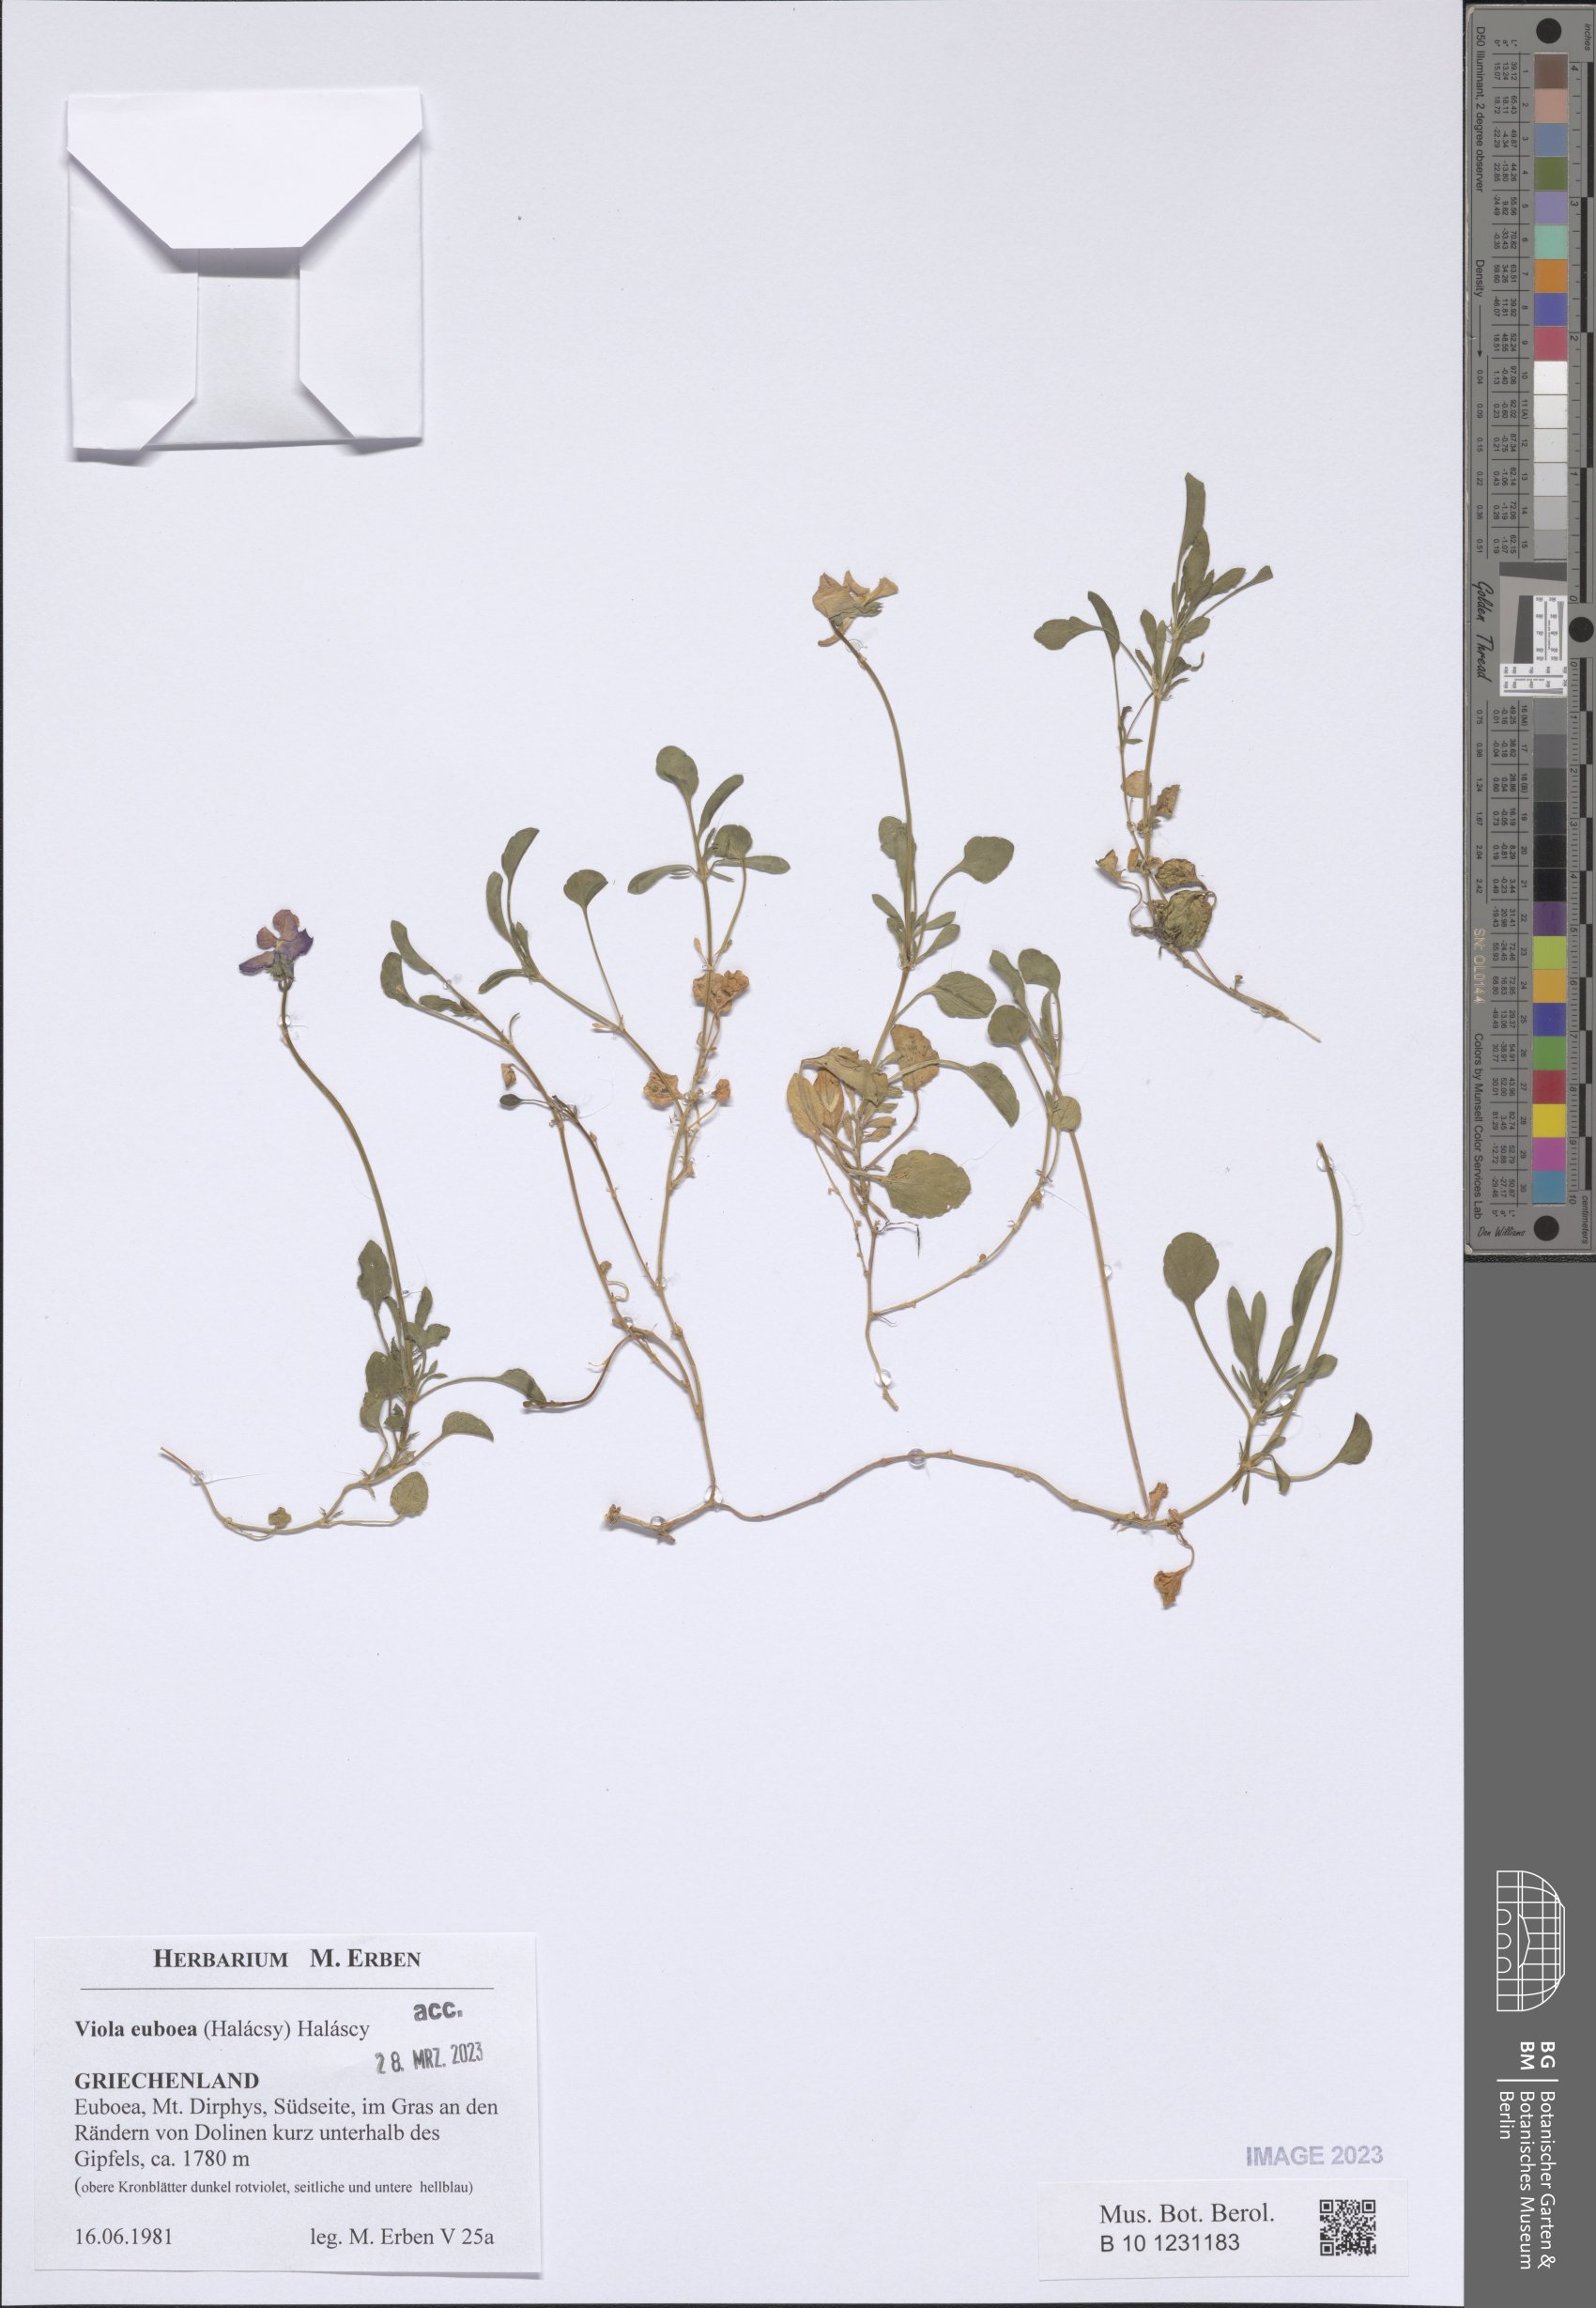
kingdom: Plantae
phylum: Tracheophyta
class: Magnoliopsida
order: Malpighiales
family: Violaceae
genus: Viola
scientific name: Viola euboea
